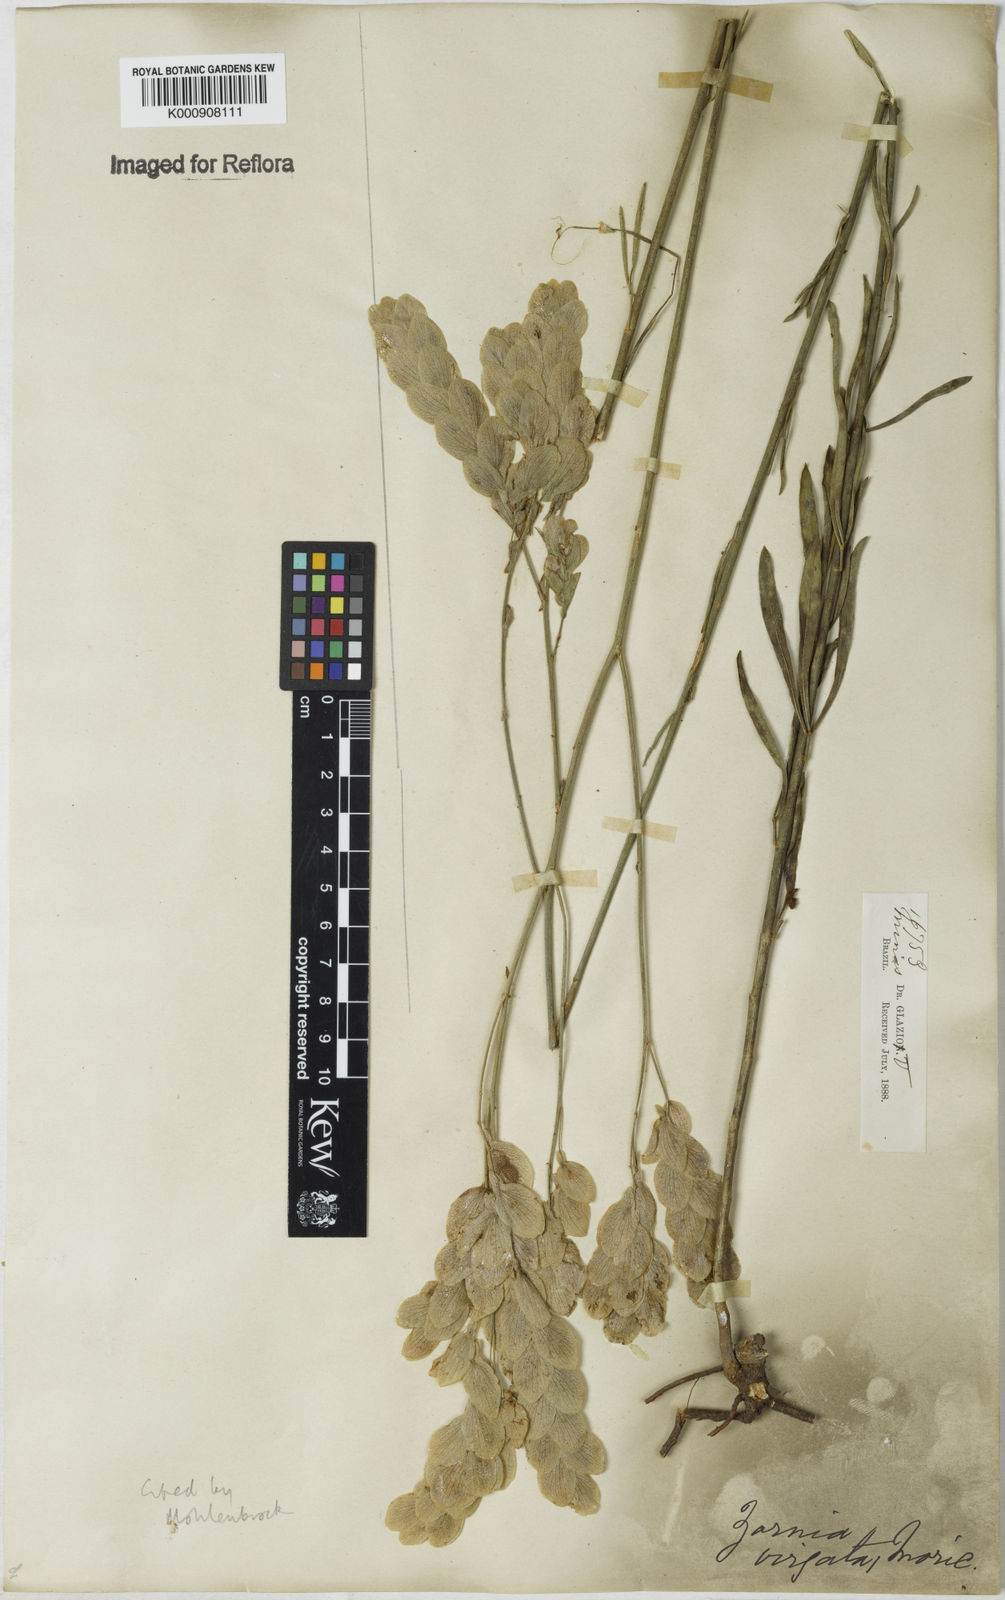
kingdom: Plantae
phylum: Tracheophyta
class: Magnoliopsida
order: Fabales
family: Fabaceae
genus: Zornia
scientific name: Zornia virgata
